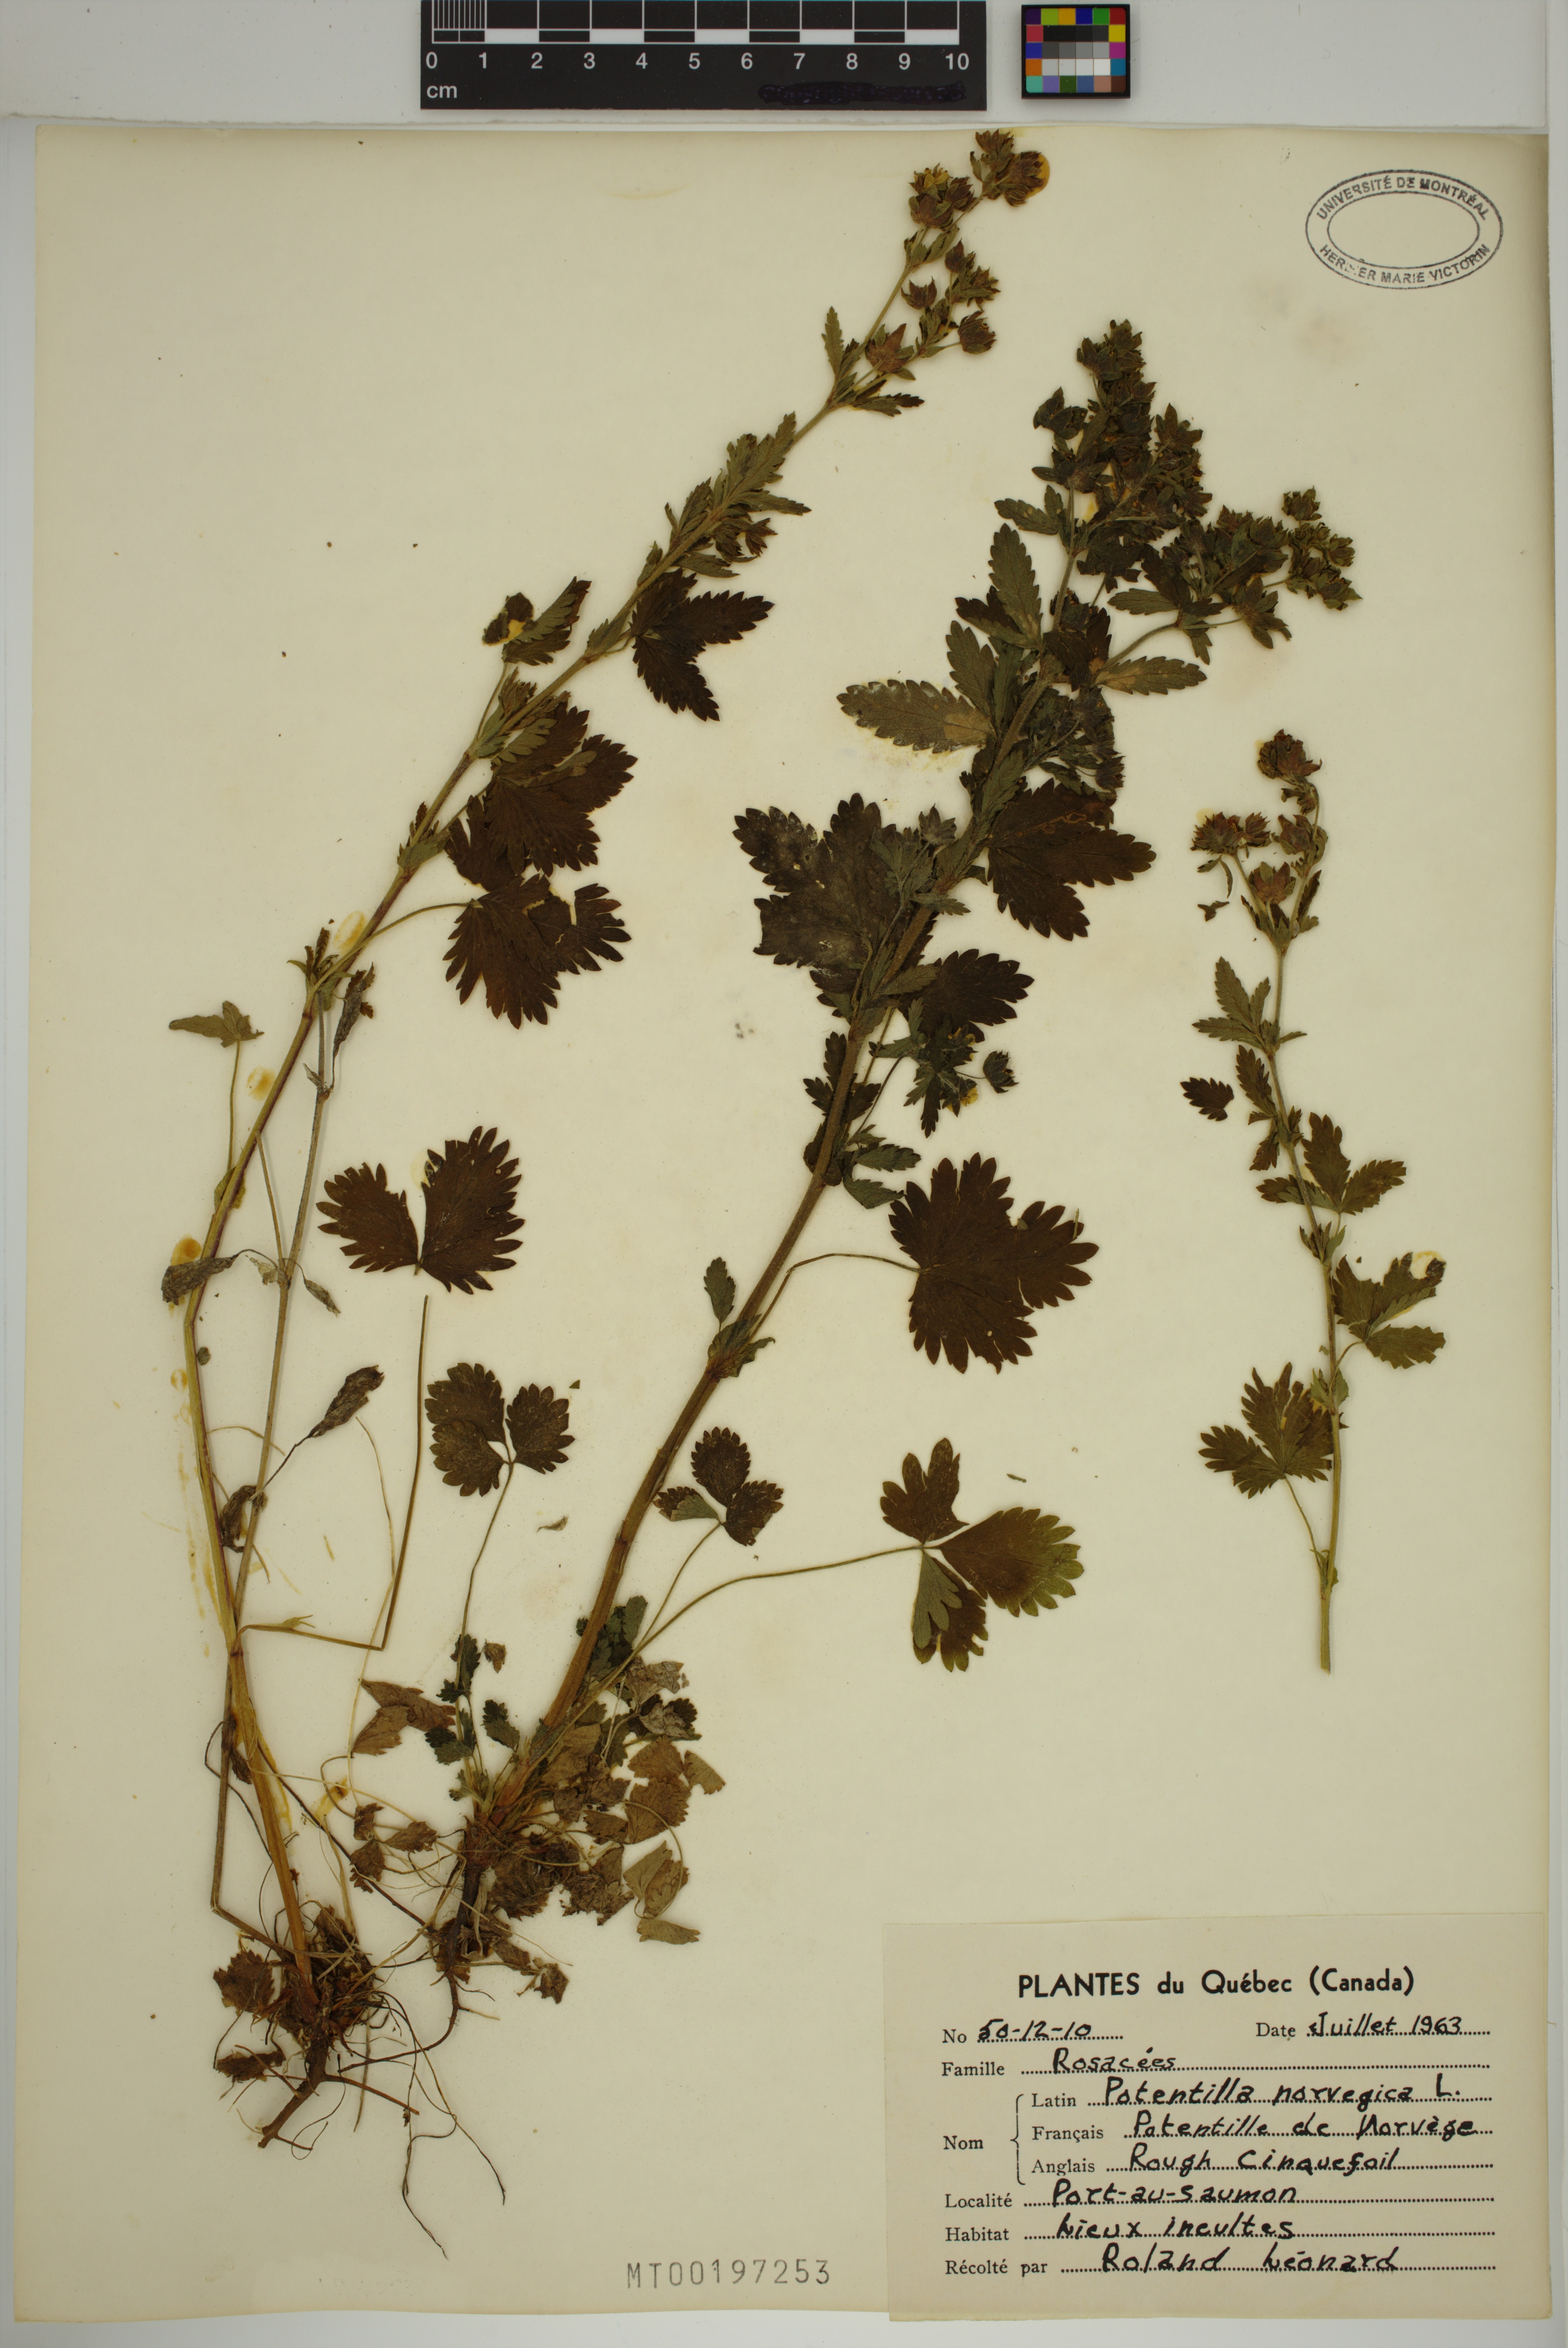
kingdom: Plantae
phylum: Tracheophyta
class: Magnoliopsida
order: Rosales
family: Rosaceae
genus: Potentilla
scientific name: Potentilla norvegica
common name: Ternate-leaved cinquefoil
